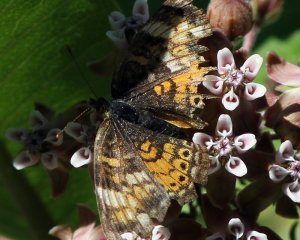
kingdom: Animalia
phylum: Arthropoda
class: Insecta
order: Lepidoptera
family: Nymphalidae
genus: Phyciodes
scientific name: Phyciodes tharos
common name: Pearl Crescent
